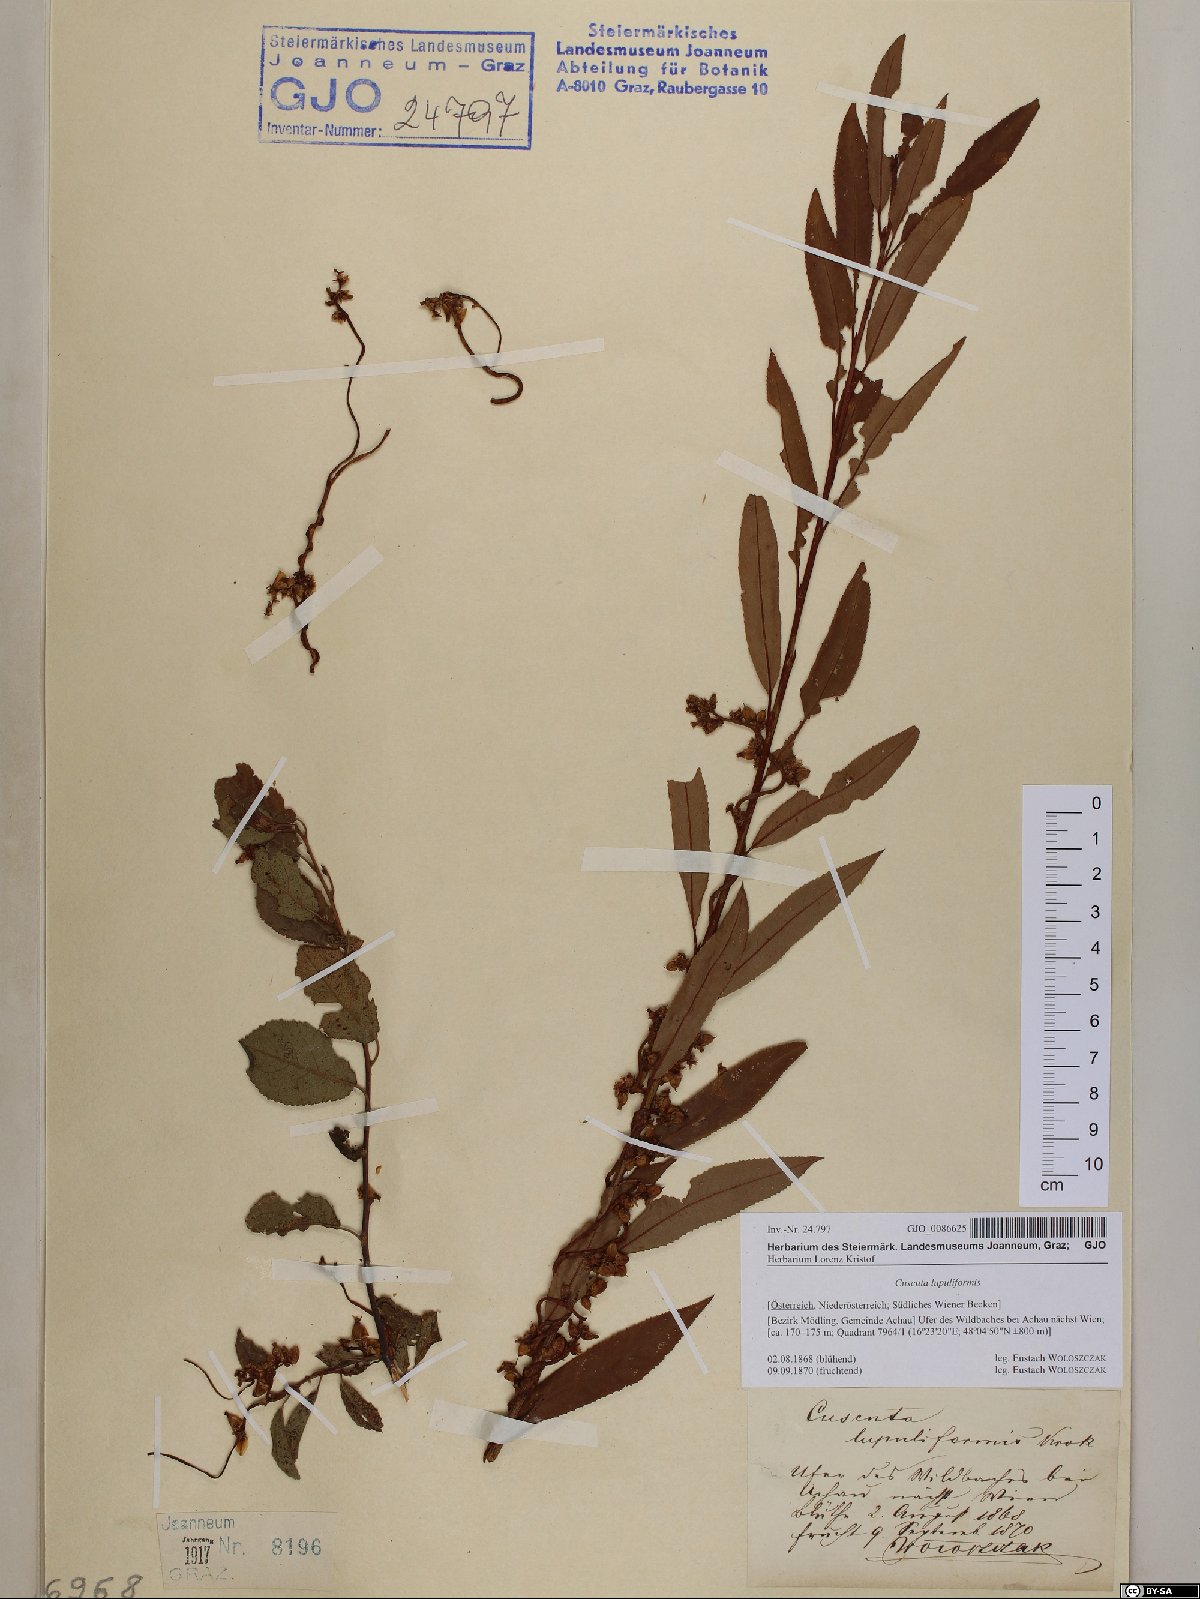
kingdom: Plantae
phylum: Tracheophyta
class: Magnoliopsida
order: Solanales
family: Convolvulaceae
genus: Cuscuta
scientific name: Cuscuta lupuliformis
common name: Hop dodder
